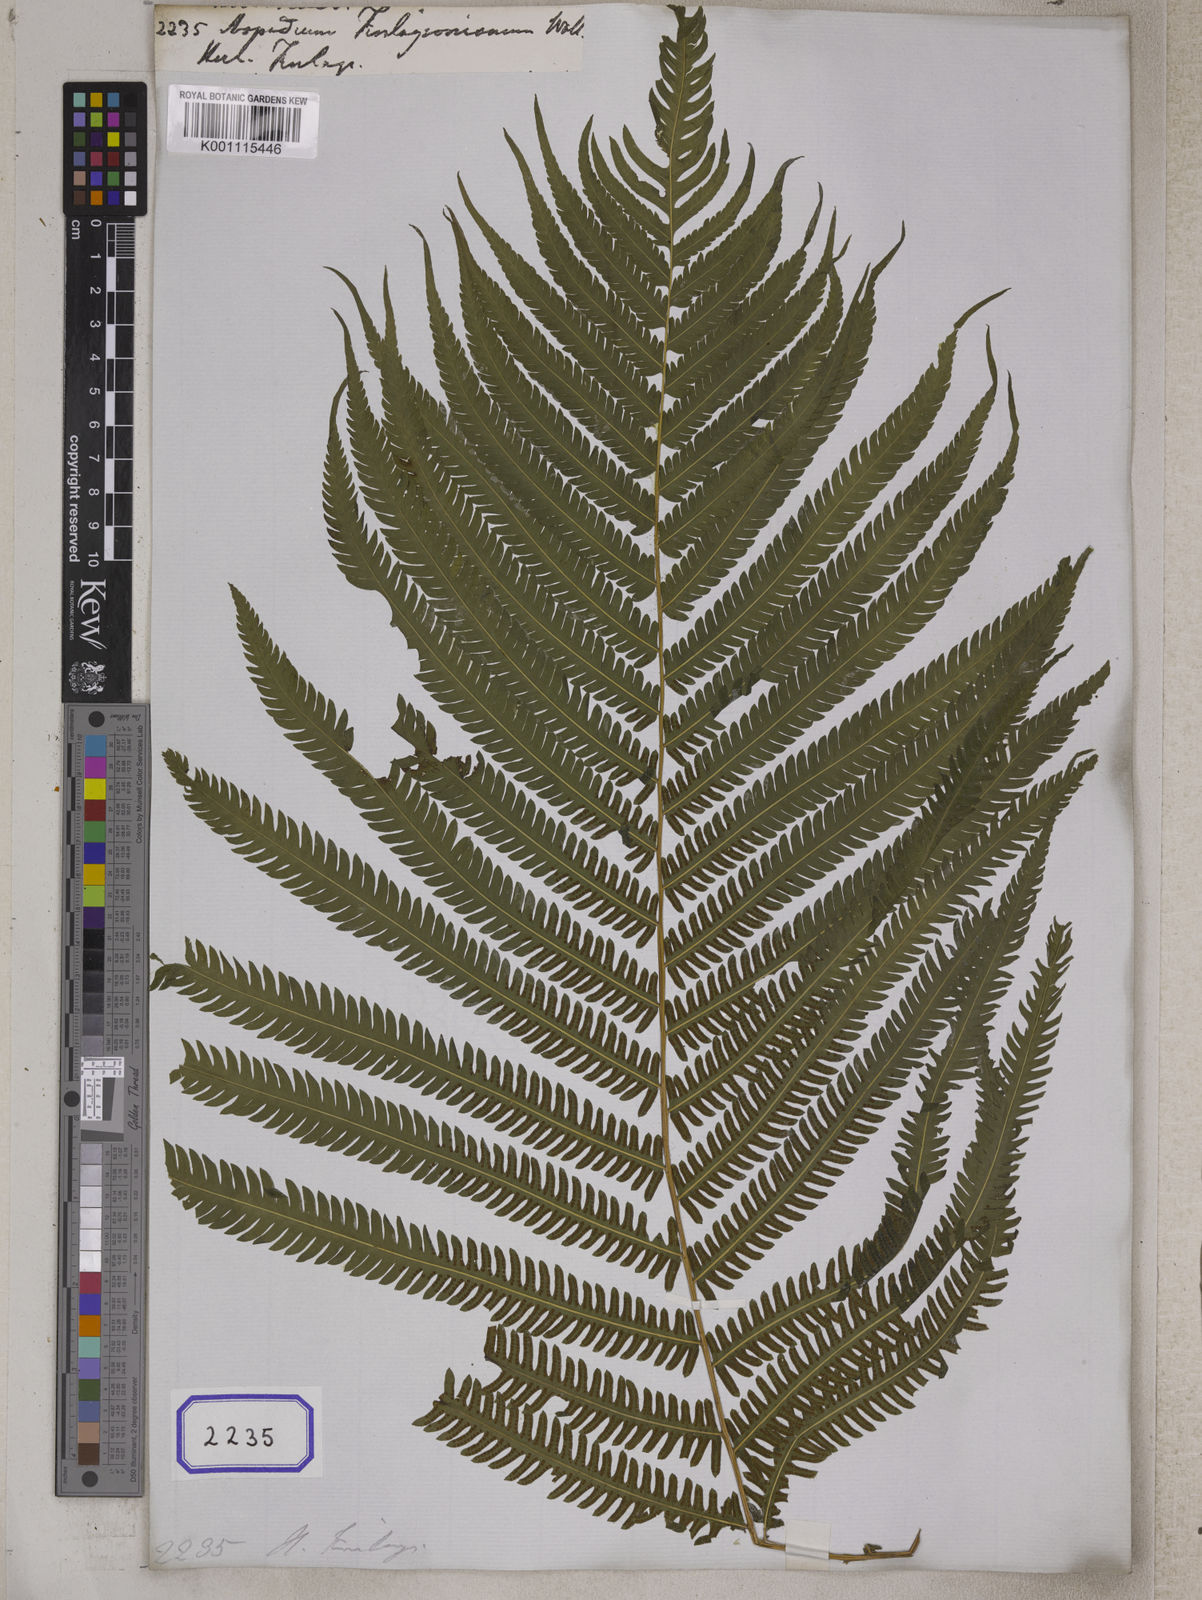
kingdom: Plantae
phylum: Tracheophyta
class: Polypodiopsida
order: Polypodiales
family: Tectariaceae
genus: Tectaria
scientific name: Tectaria Aspidium finlaysonianum
